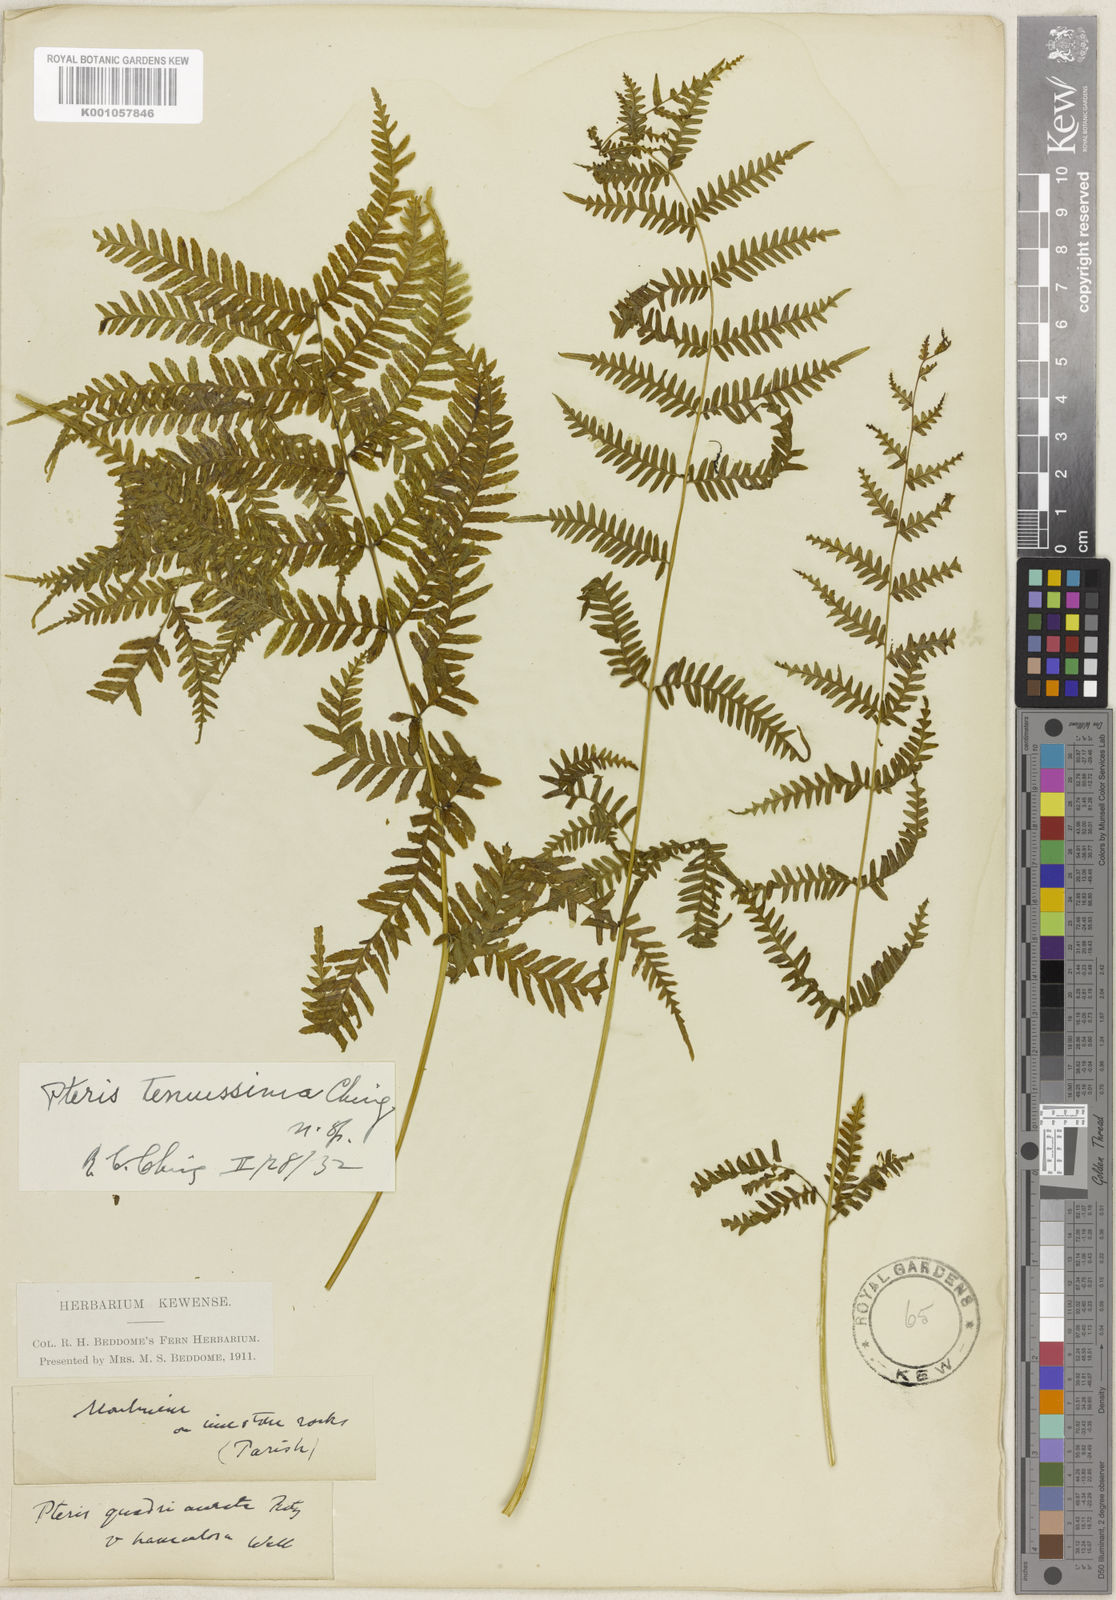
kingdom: Plantae
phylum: Tracheophyta
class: Polypodiopsida
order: Polypodiales
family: Pteridaceae
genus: Pteris
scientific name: Pteris tenuissima
